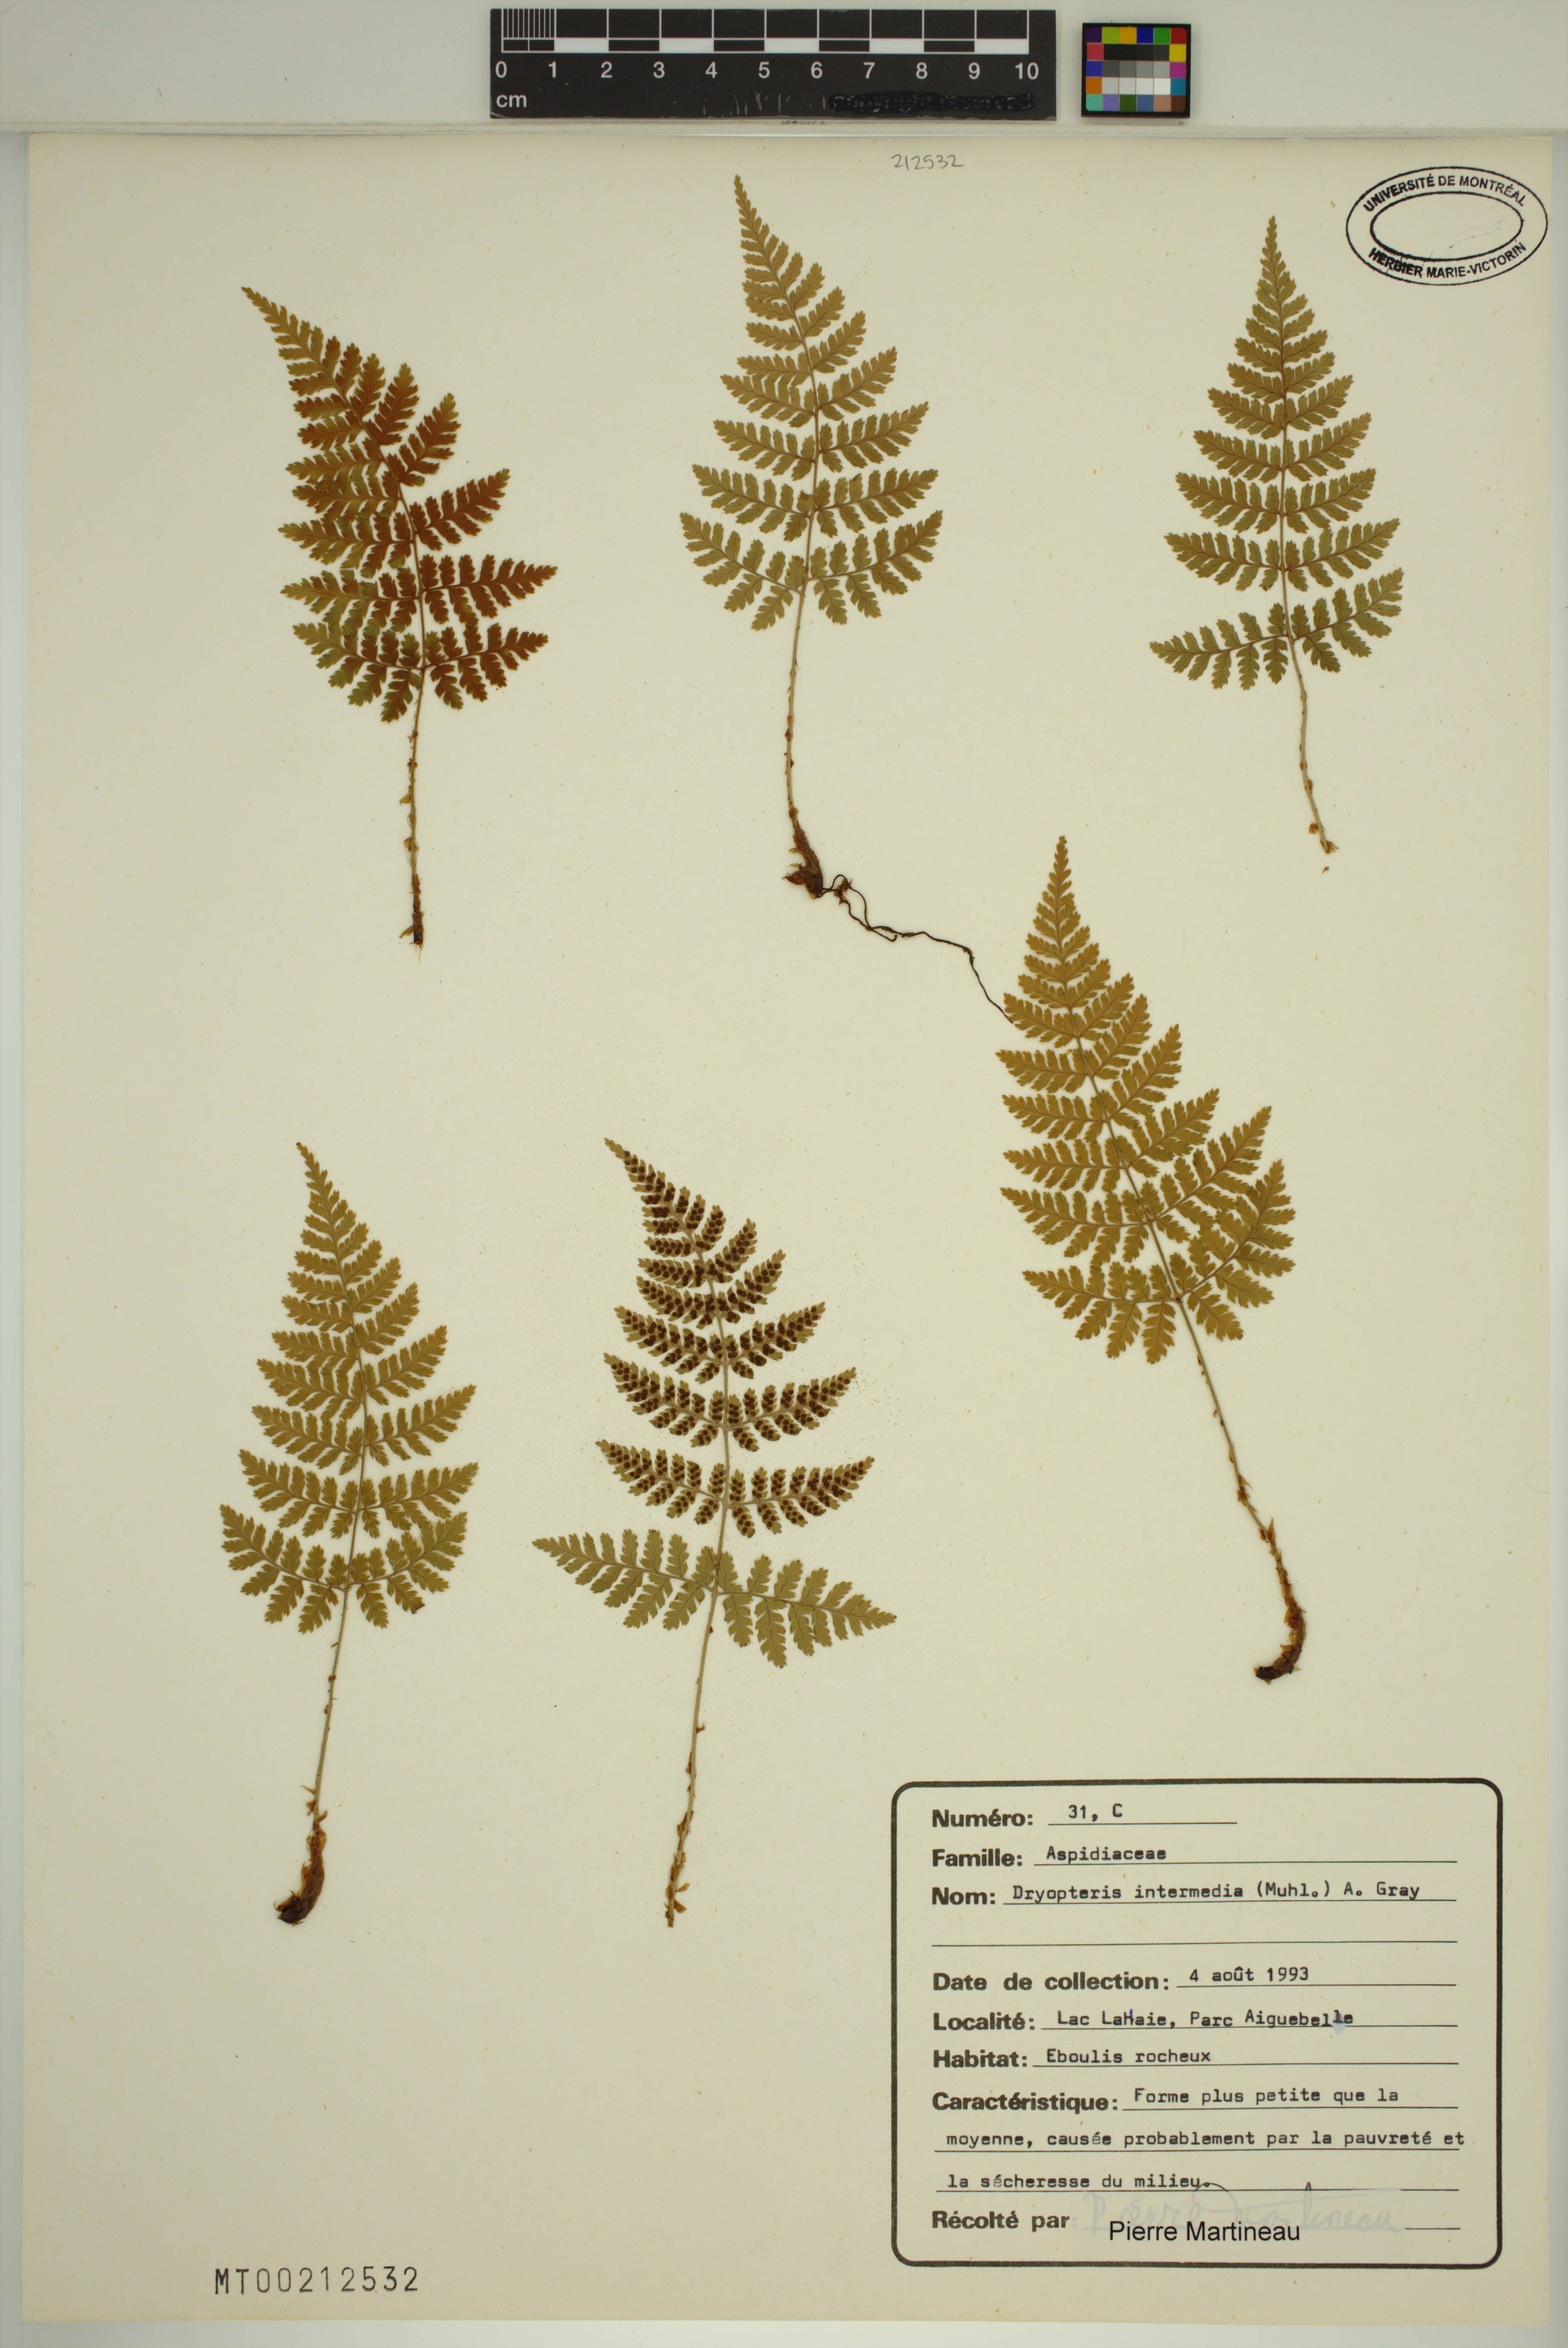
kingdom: Plantae
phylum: Tracheophyta
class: Polypodiopsida
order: Polypodiales
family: Dryopteridaceae
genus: Dryopteris
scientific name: Dryopteris intermedia
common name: Evergreen wood fern
